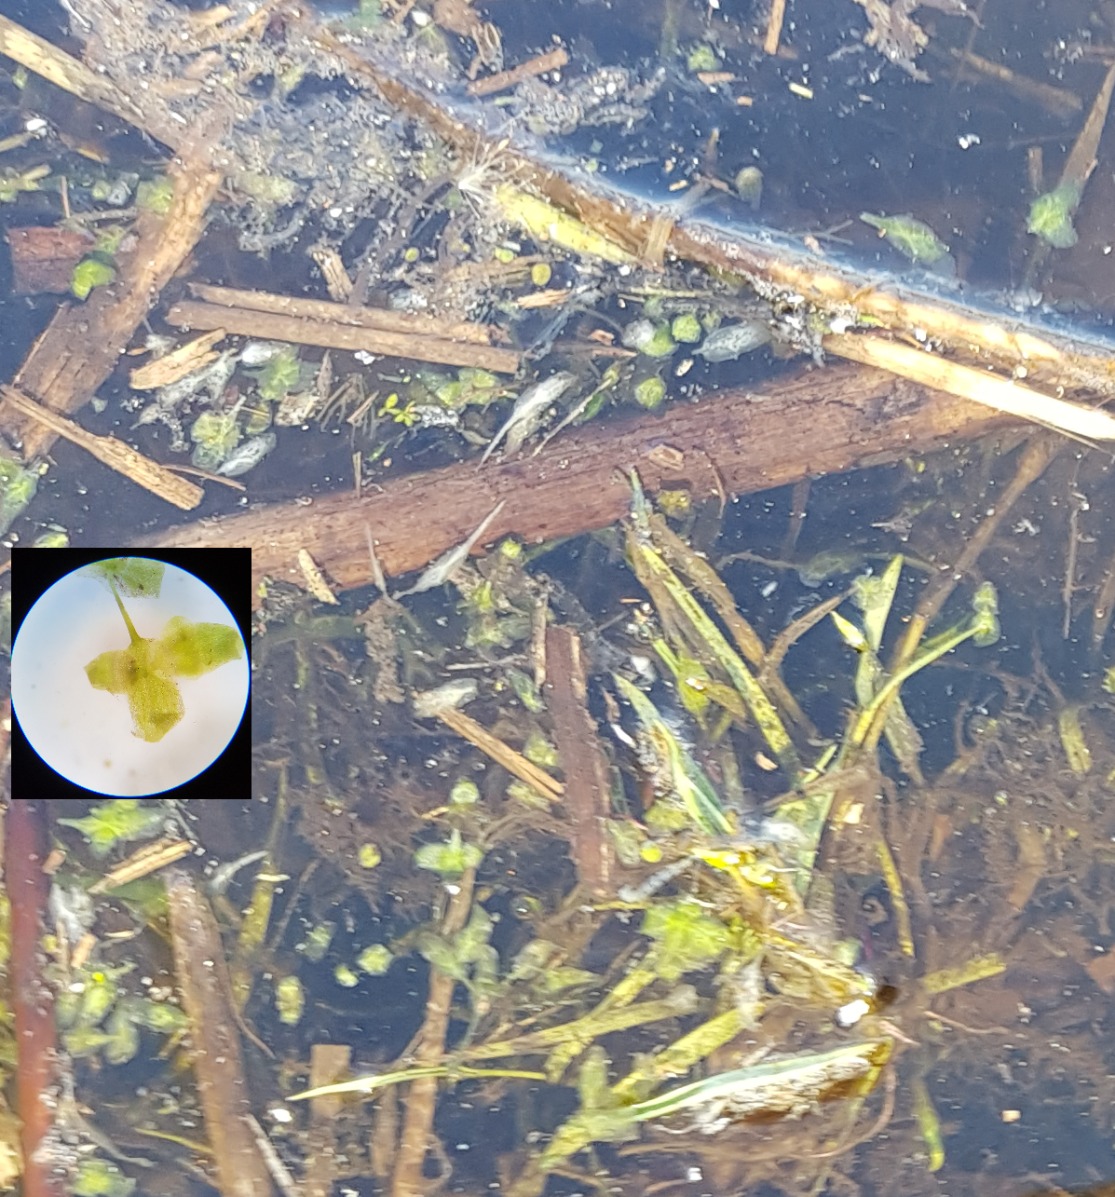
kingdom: Plantae
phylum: Tracheophyta
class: Liliopsida
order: Alismatales
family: Araceae
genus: Lemna
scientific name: Lemna trisulca
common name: Kors-andemad
